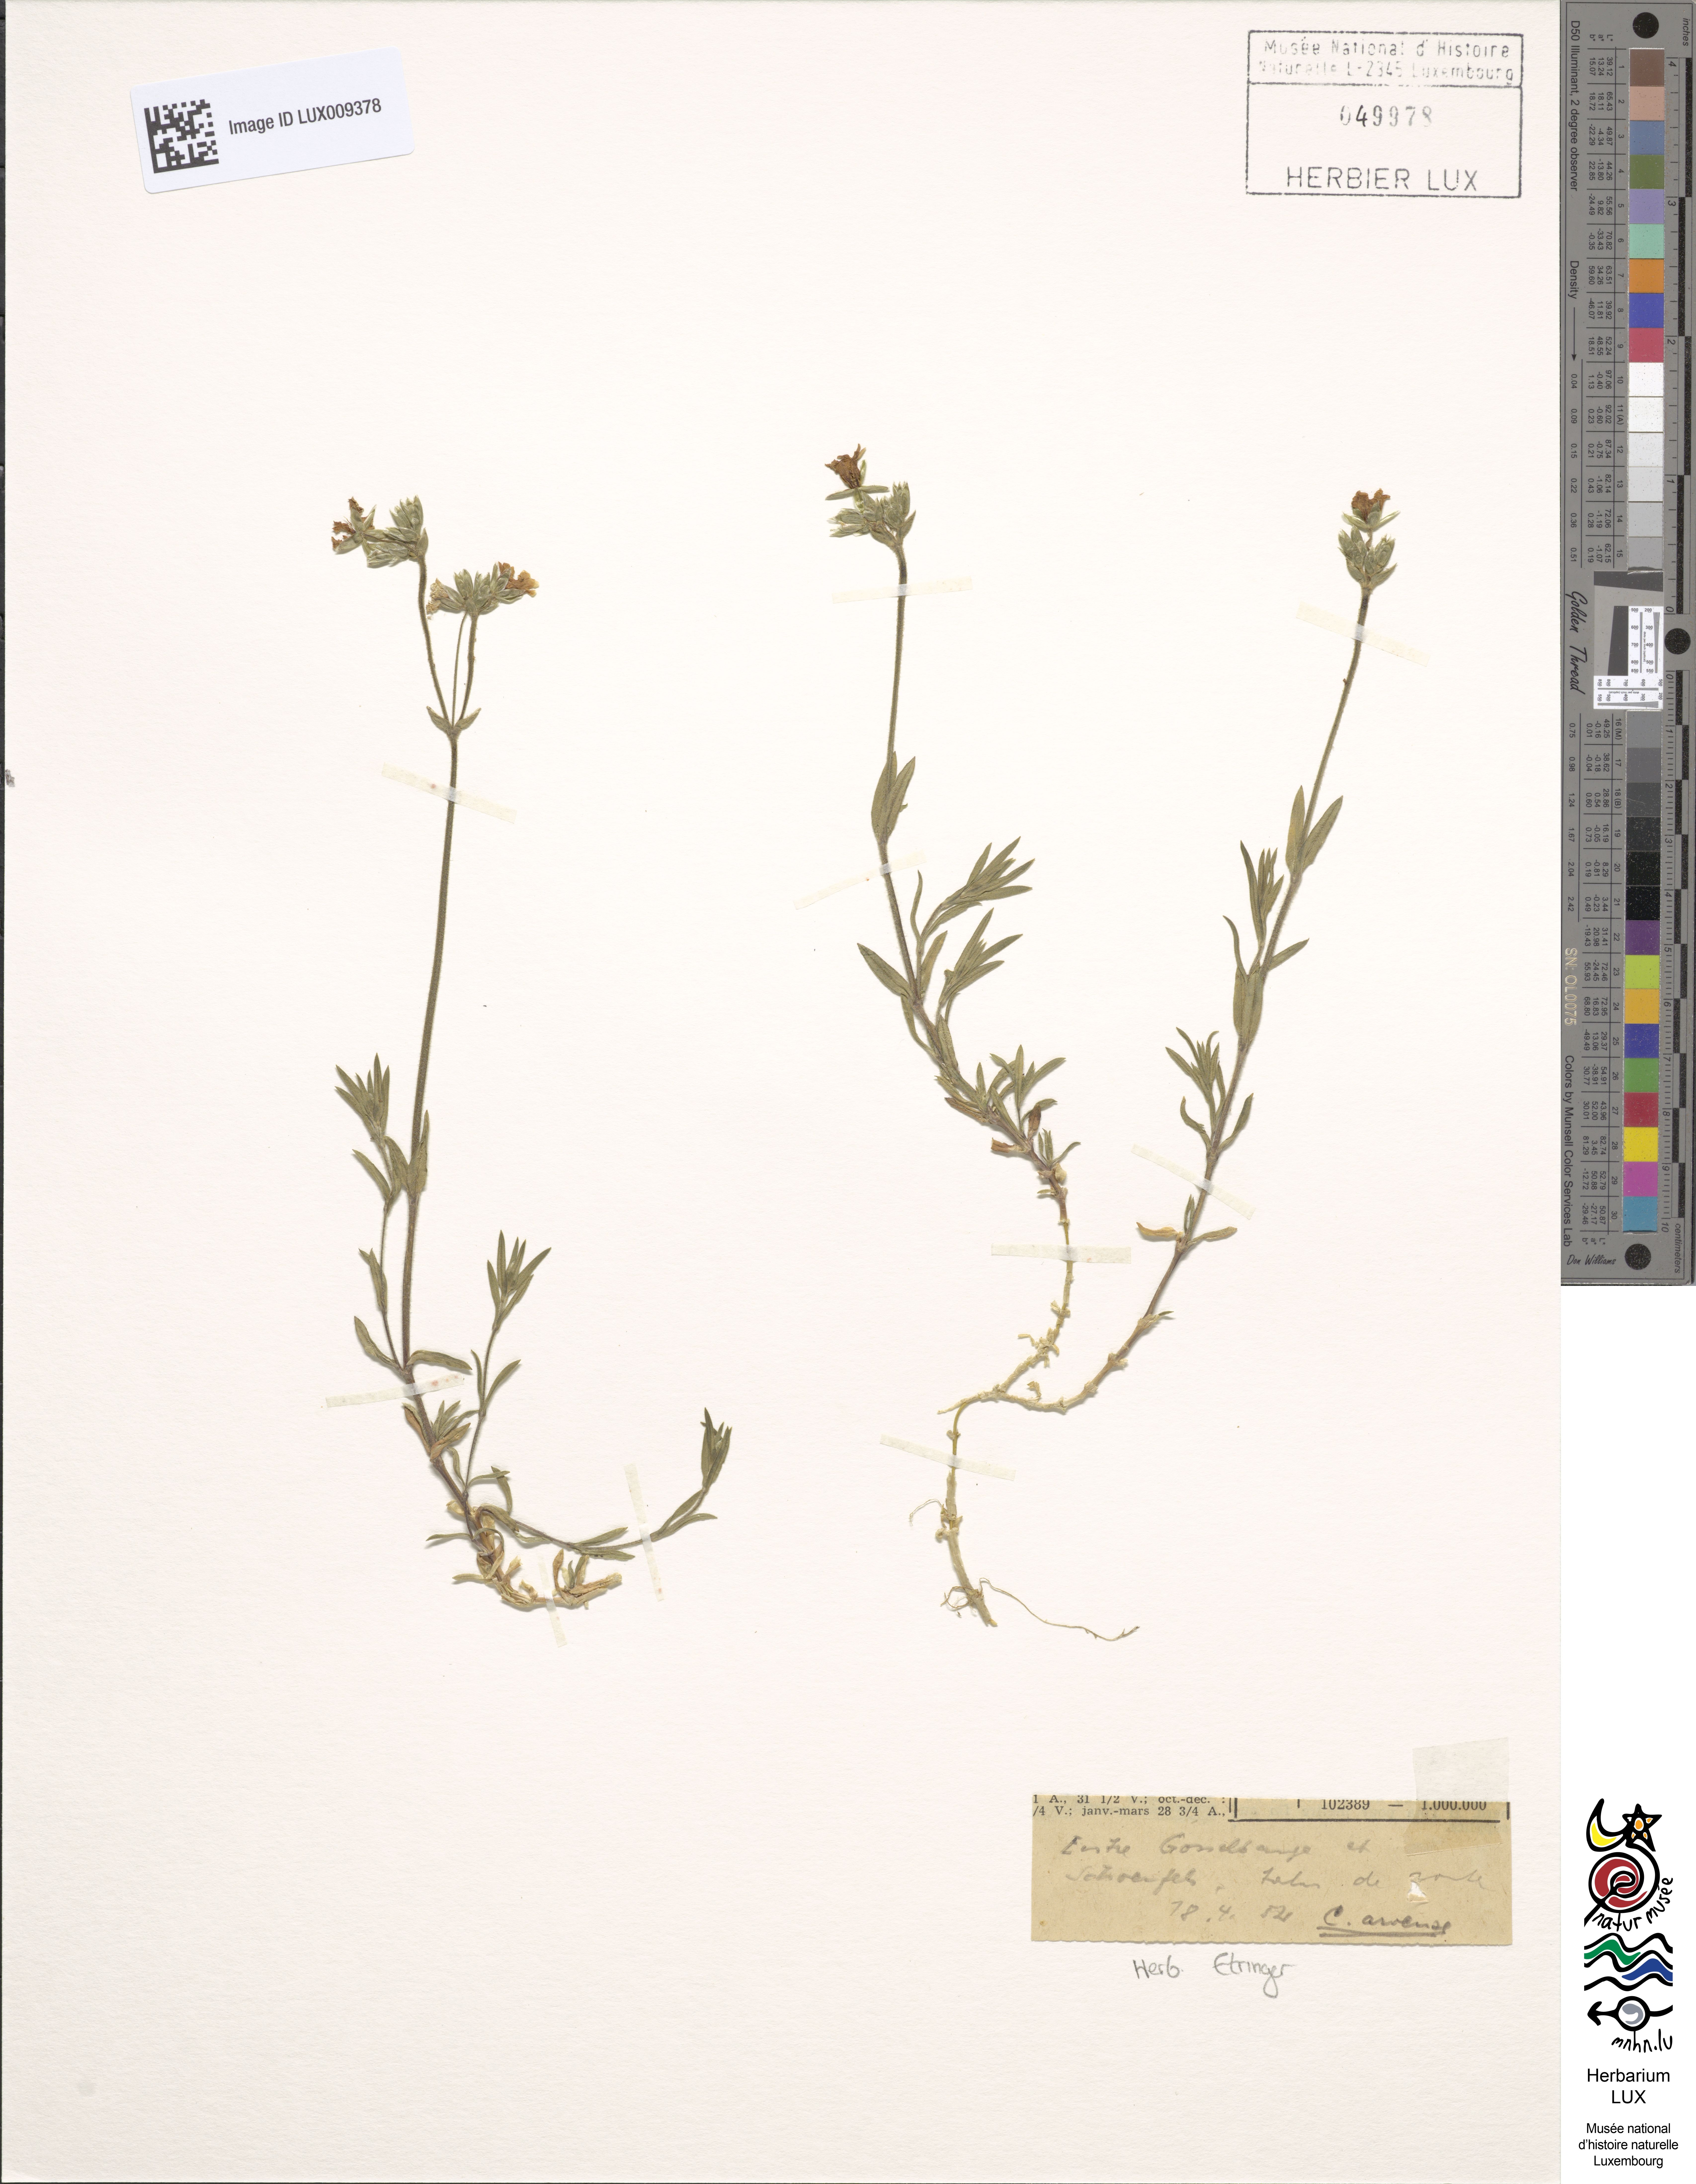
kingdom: Plantae
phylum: Tracheophyta
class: Magnoliopsida
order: Caryophyllales
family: Caryophyllaceae
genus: Cerastium
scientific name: Cerastium arvense
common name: Field mouse-ear
